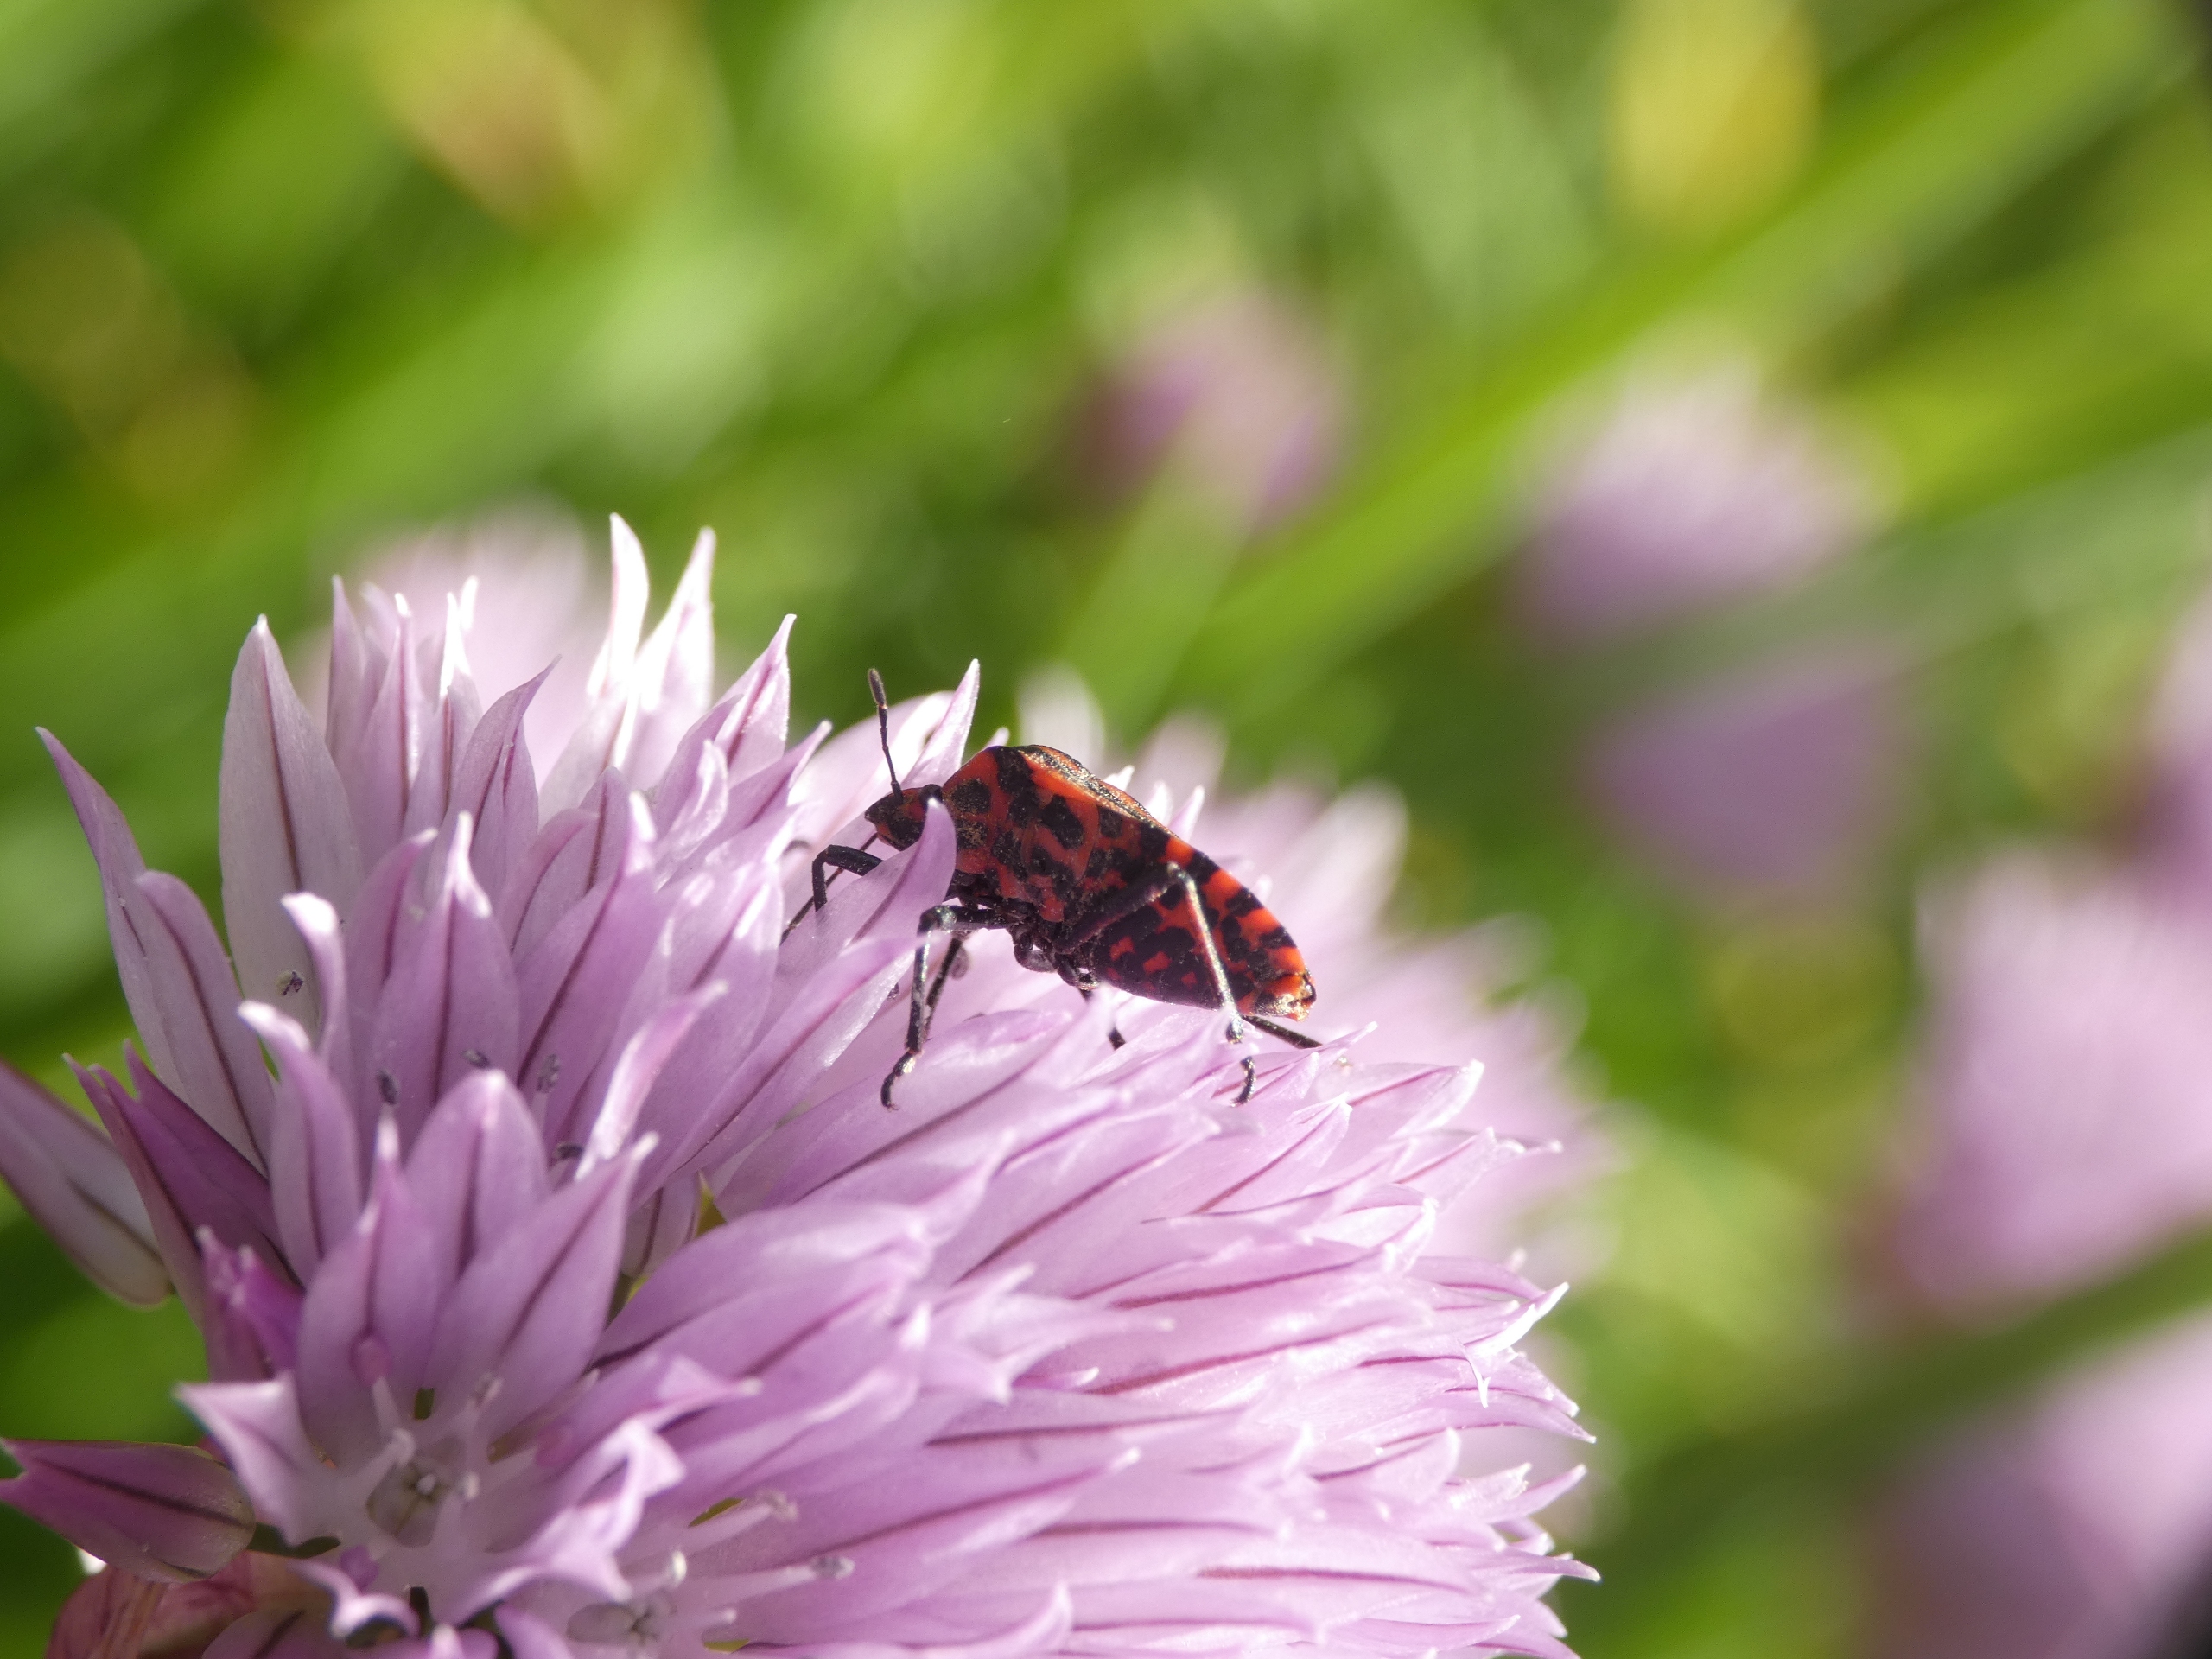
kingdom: Animalia
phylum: Arthropoda
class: Insecta
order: Hemiptera
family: Pentatomidae
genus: Graphosoma
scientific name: Graphosoma italicum
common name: Stribetæge
